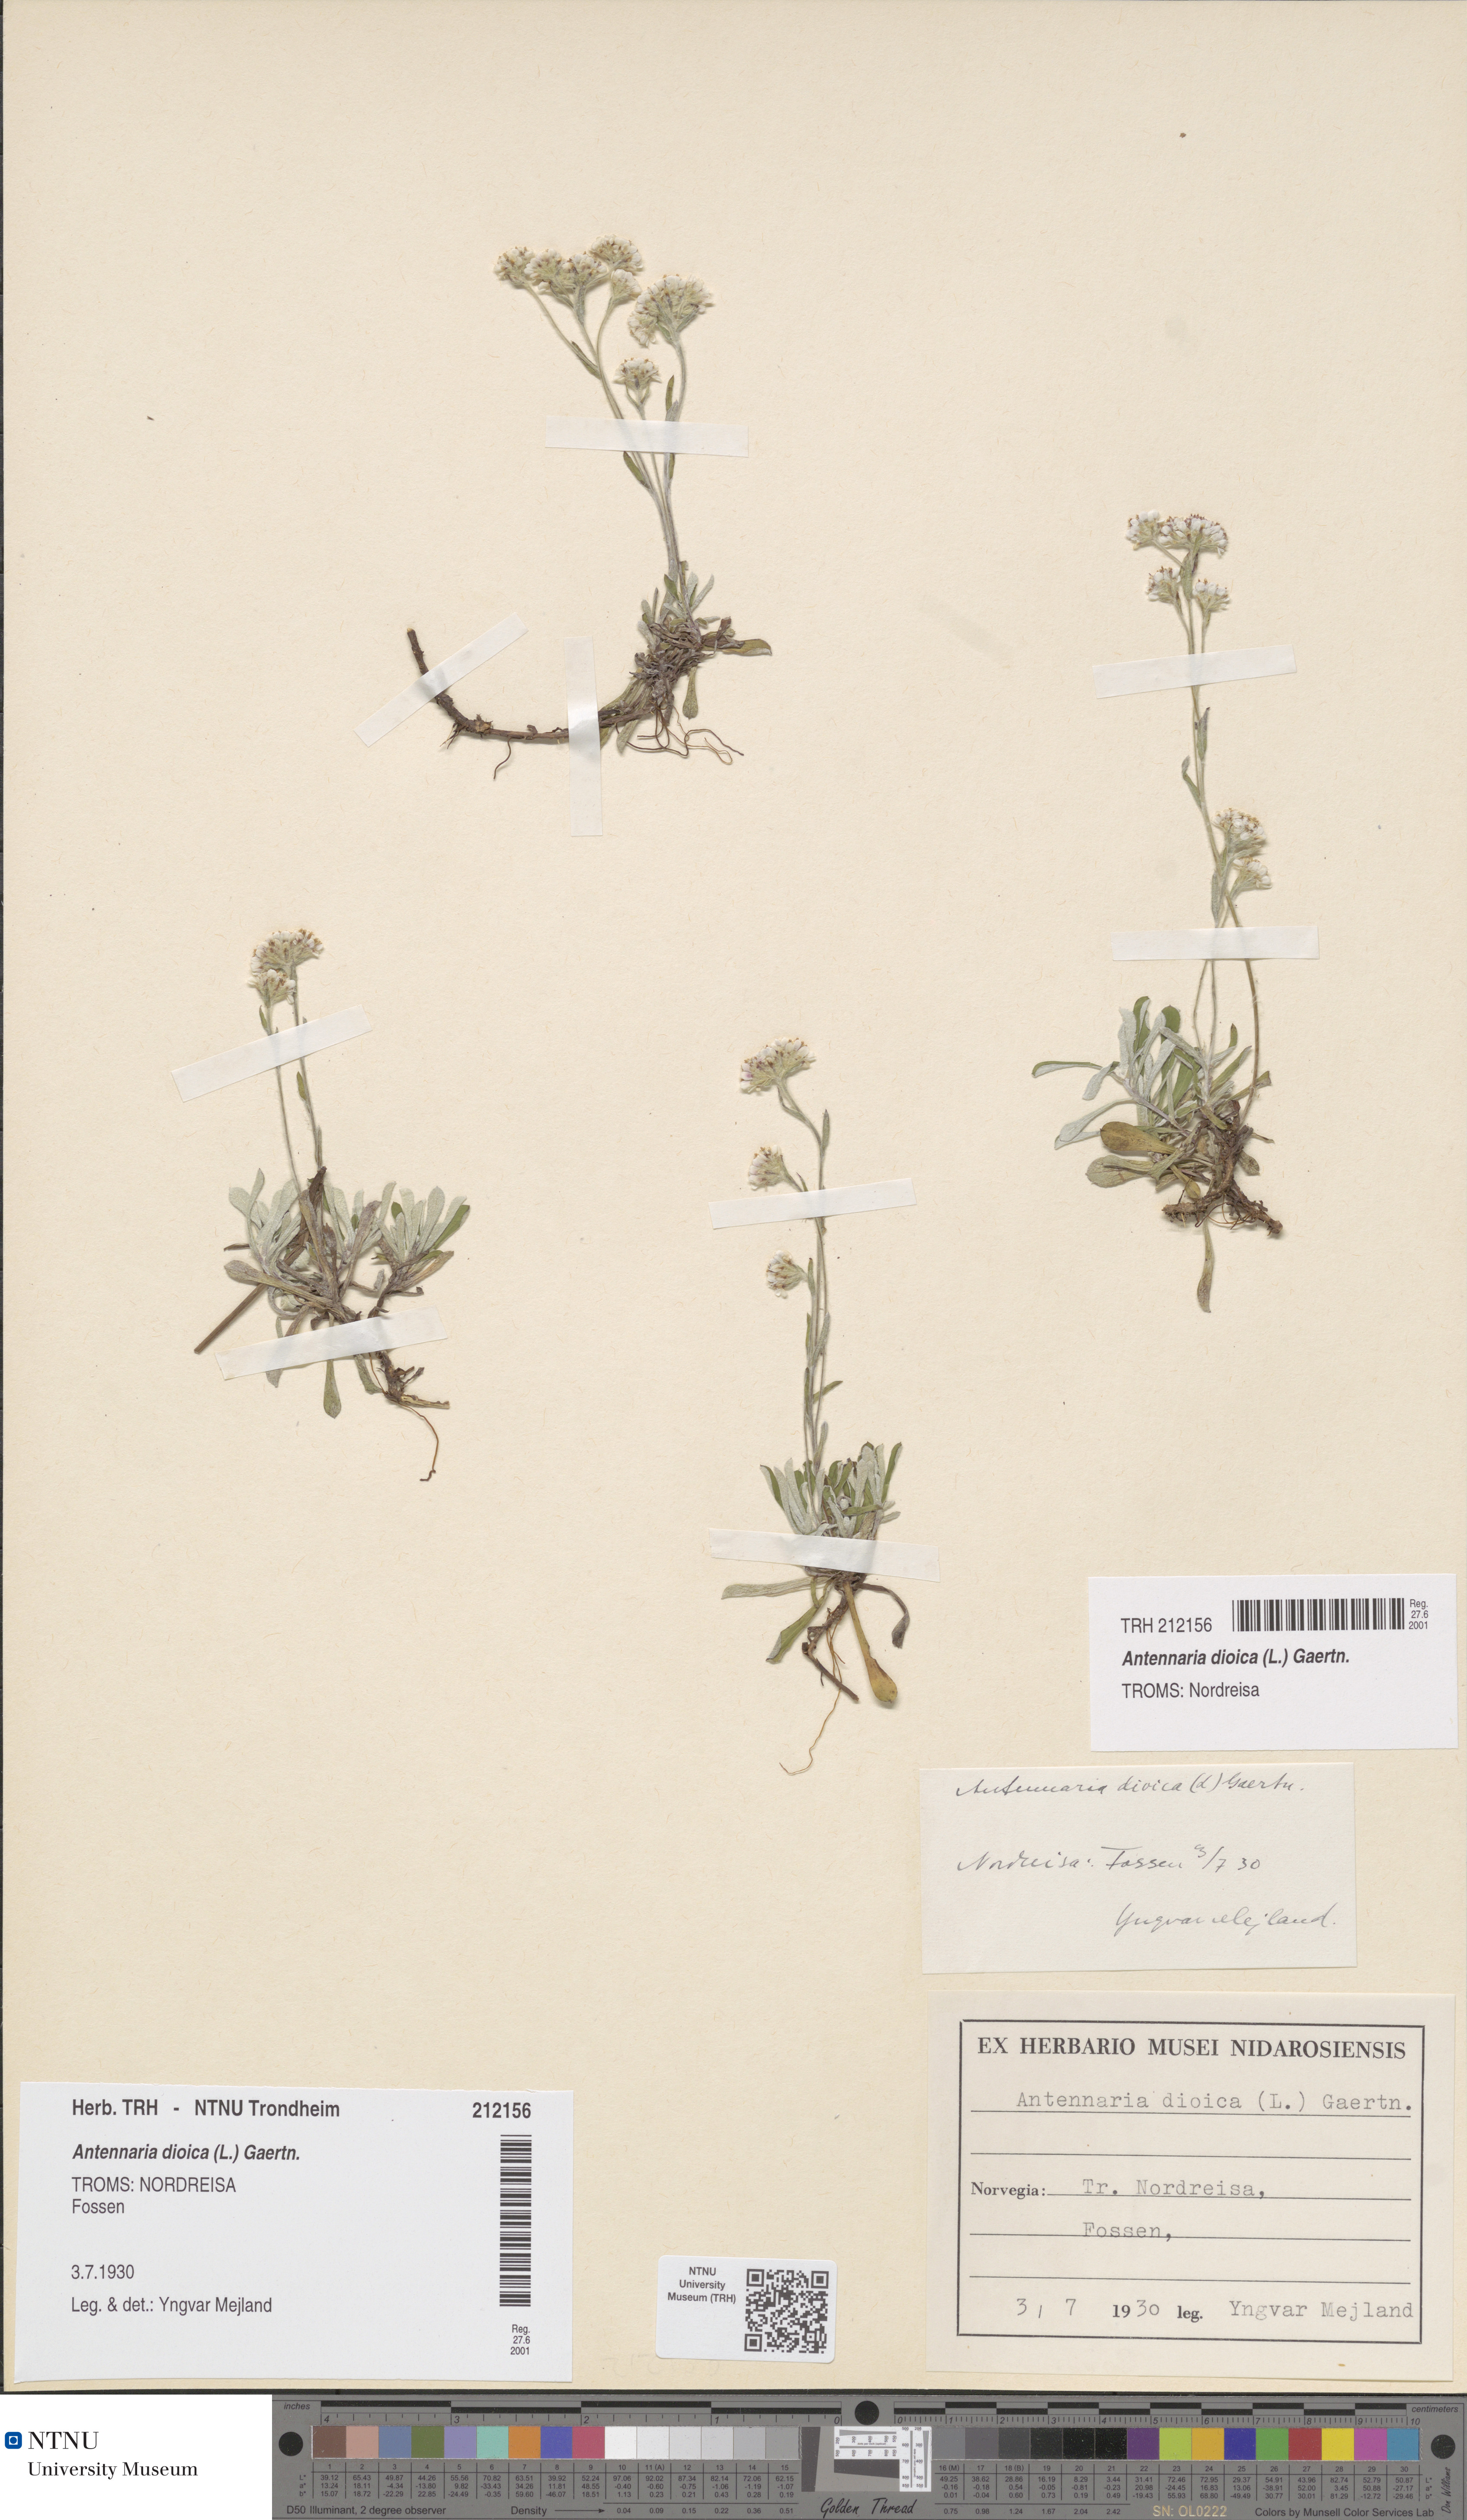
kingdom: Plantae
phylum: Tracheophyta
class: Magnoliopsida
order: Asterales
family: Asteraceae
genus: Antennaria
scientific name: Antennaria dioica
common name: Mountain everlasting
